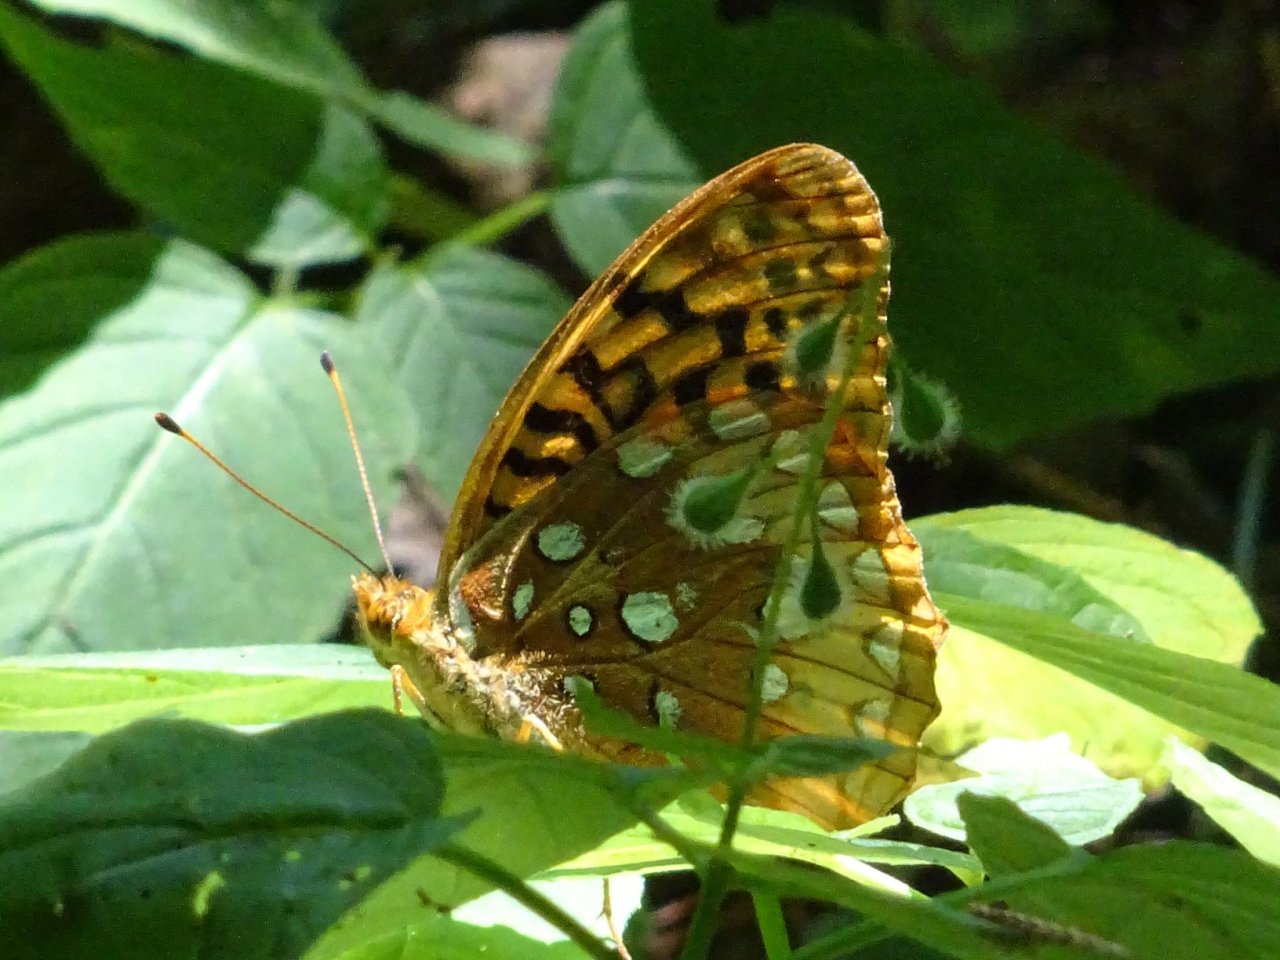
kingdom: Animalia
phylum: Arthropoda
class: Insecta
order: Lepidoptera
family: Nymphalidae
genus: Speyeria
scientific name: Speyeria cybele
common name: Great Spangled Fritillary
